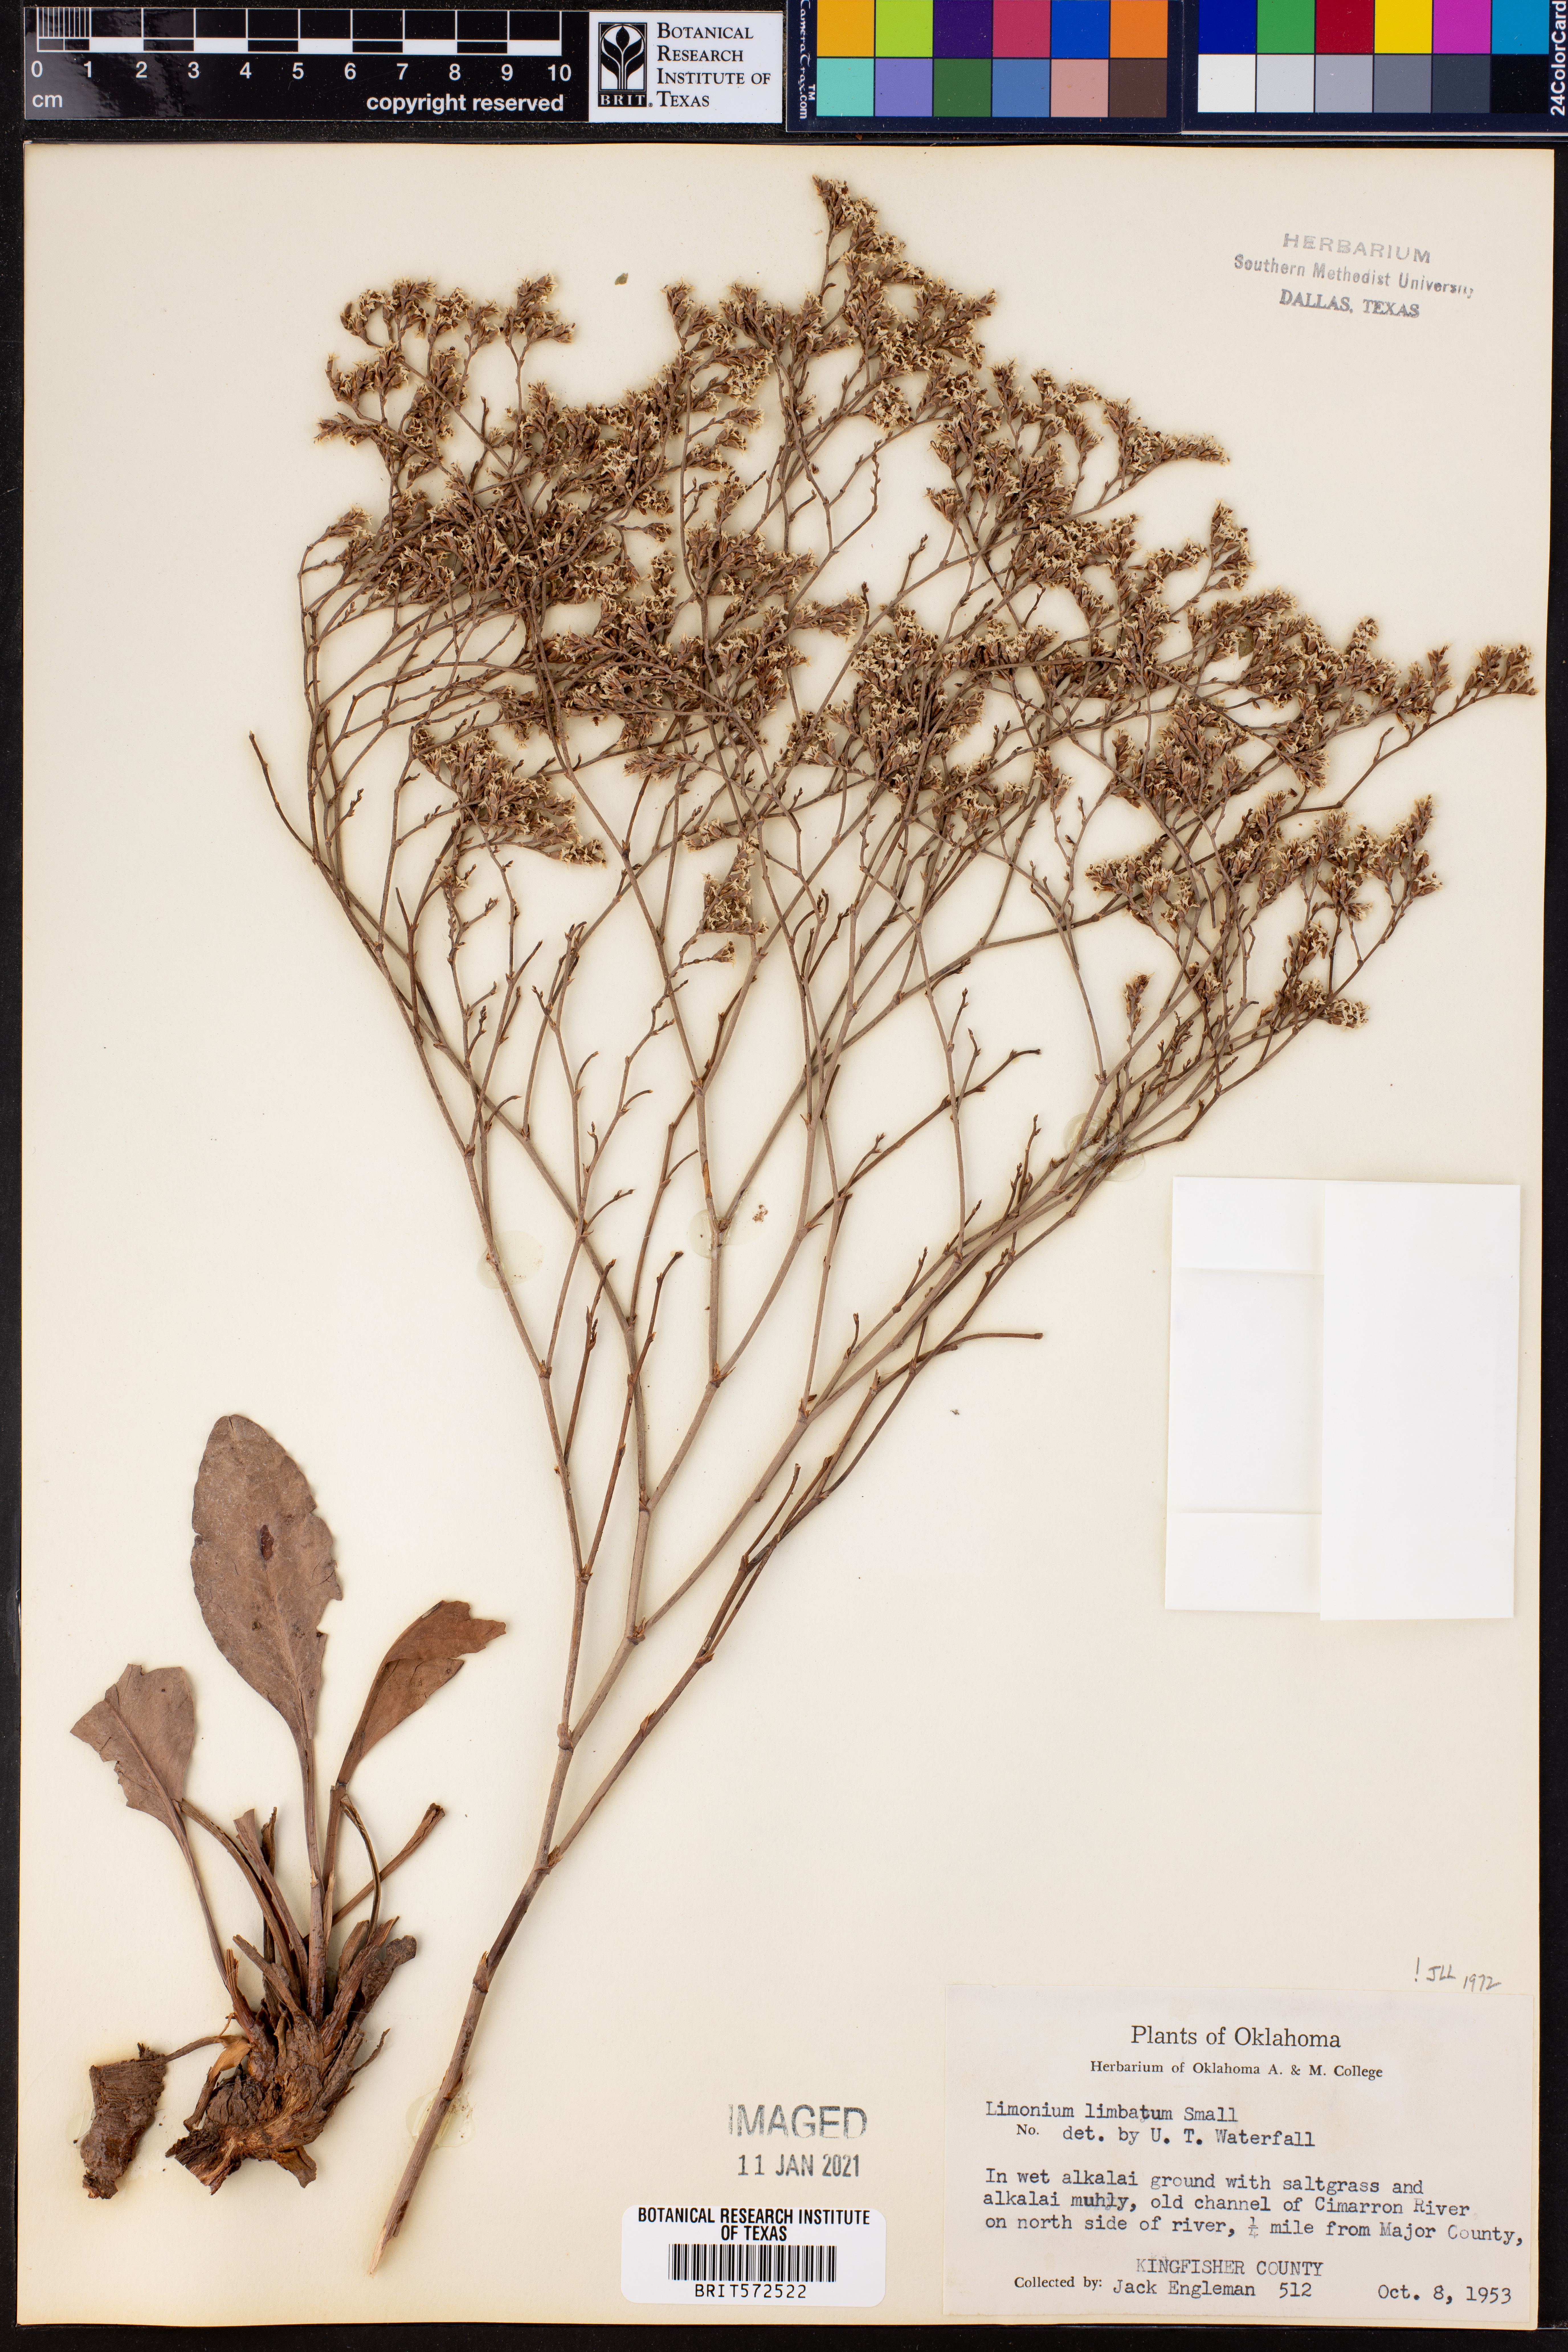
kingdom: Plantae
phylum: Tracheophyta
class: Magnoliopsida
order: Caryophyllales
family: Plumbaginaceae
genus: Limonium
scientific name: Limonium limbatum
